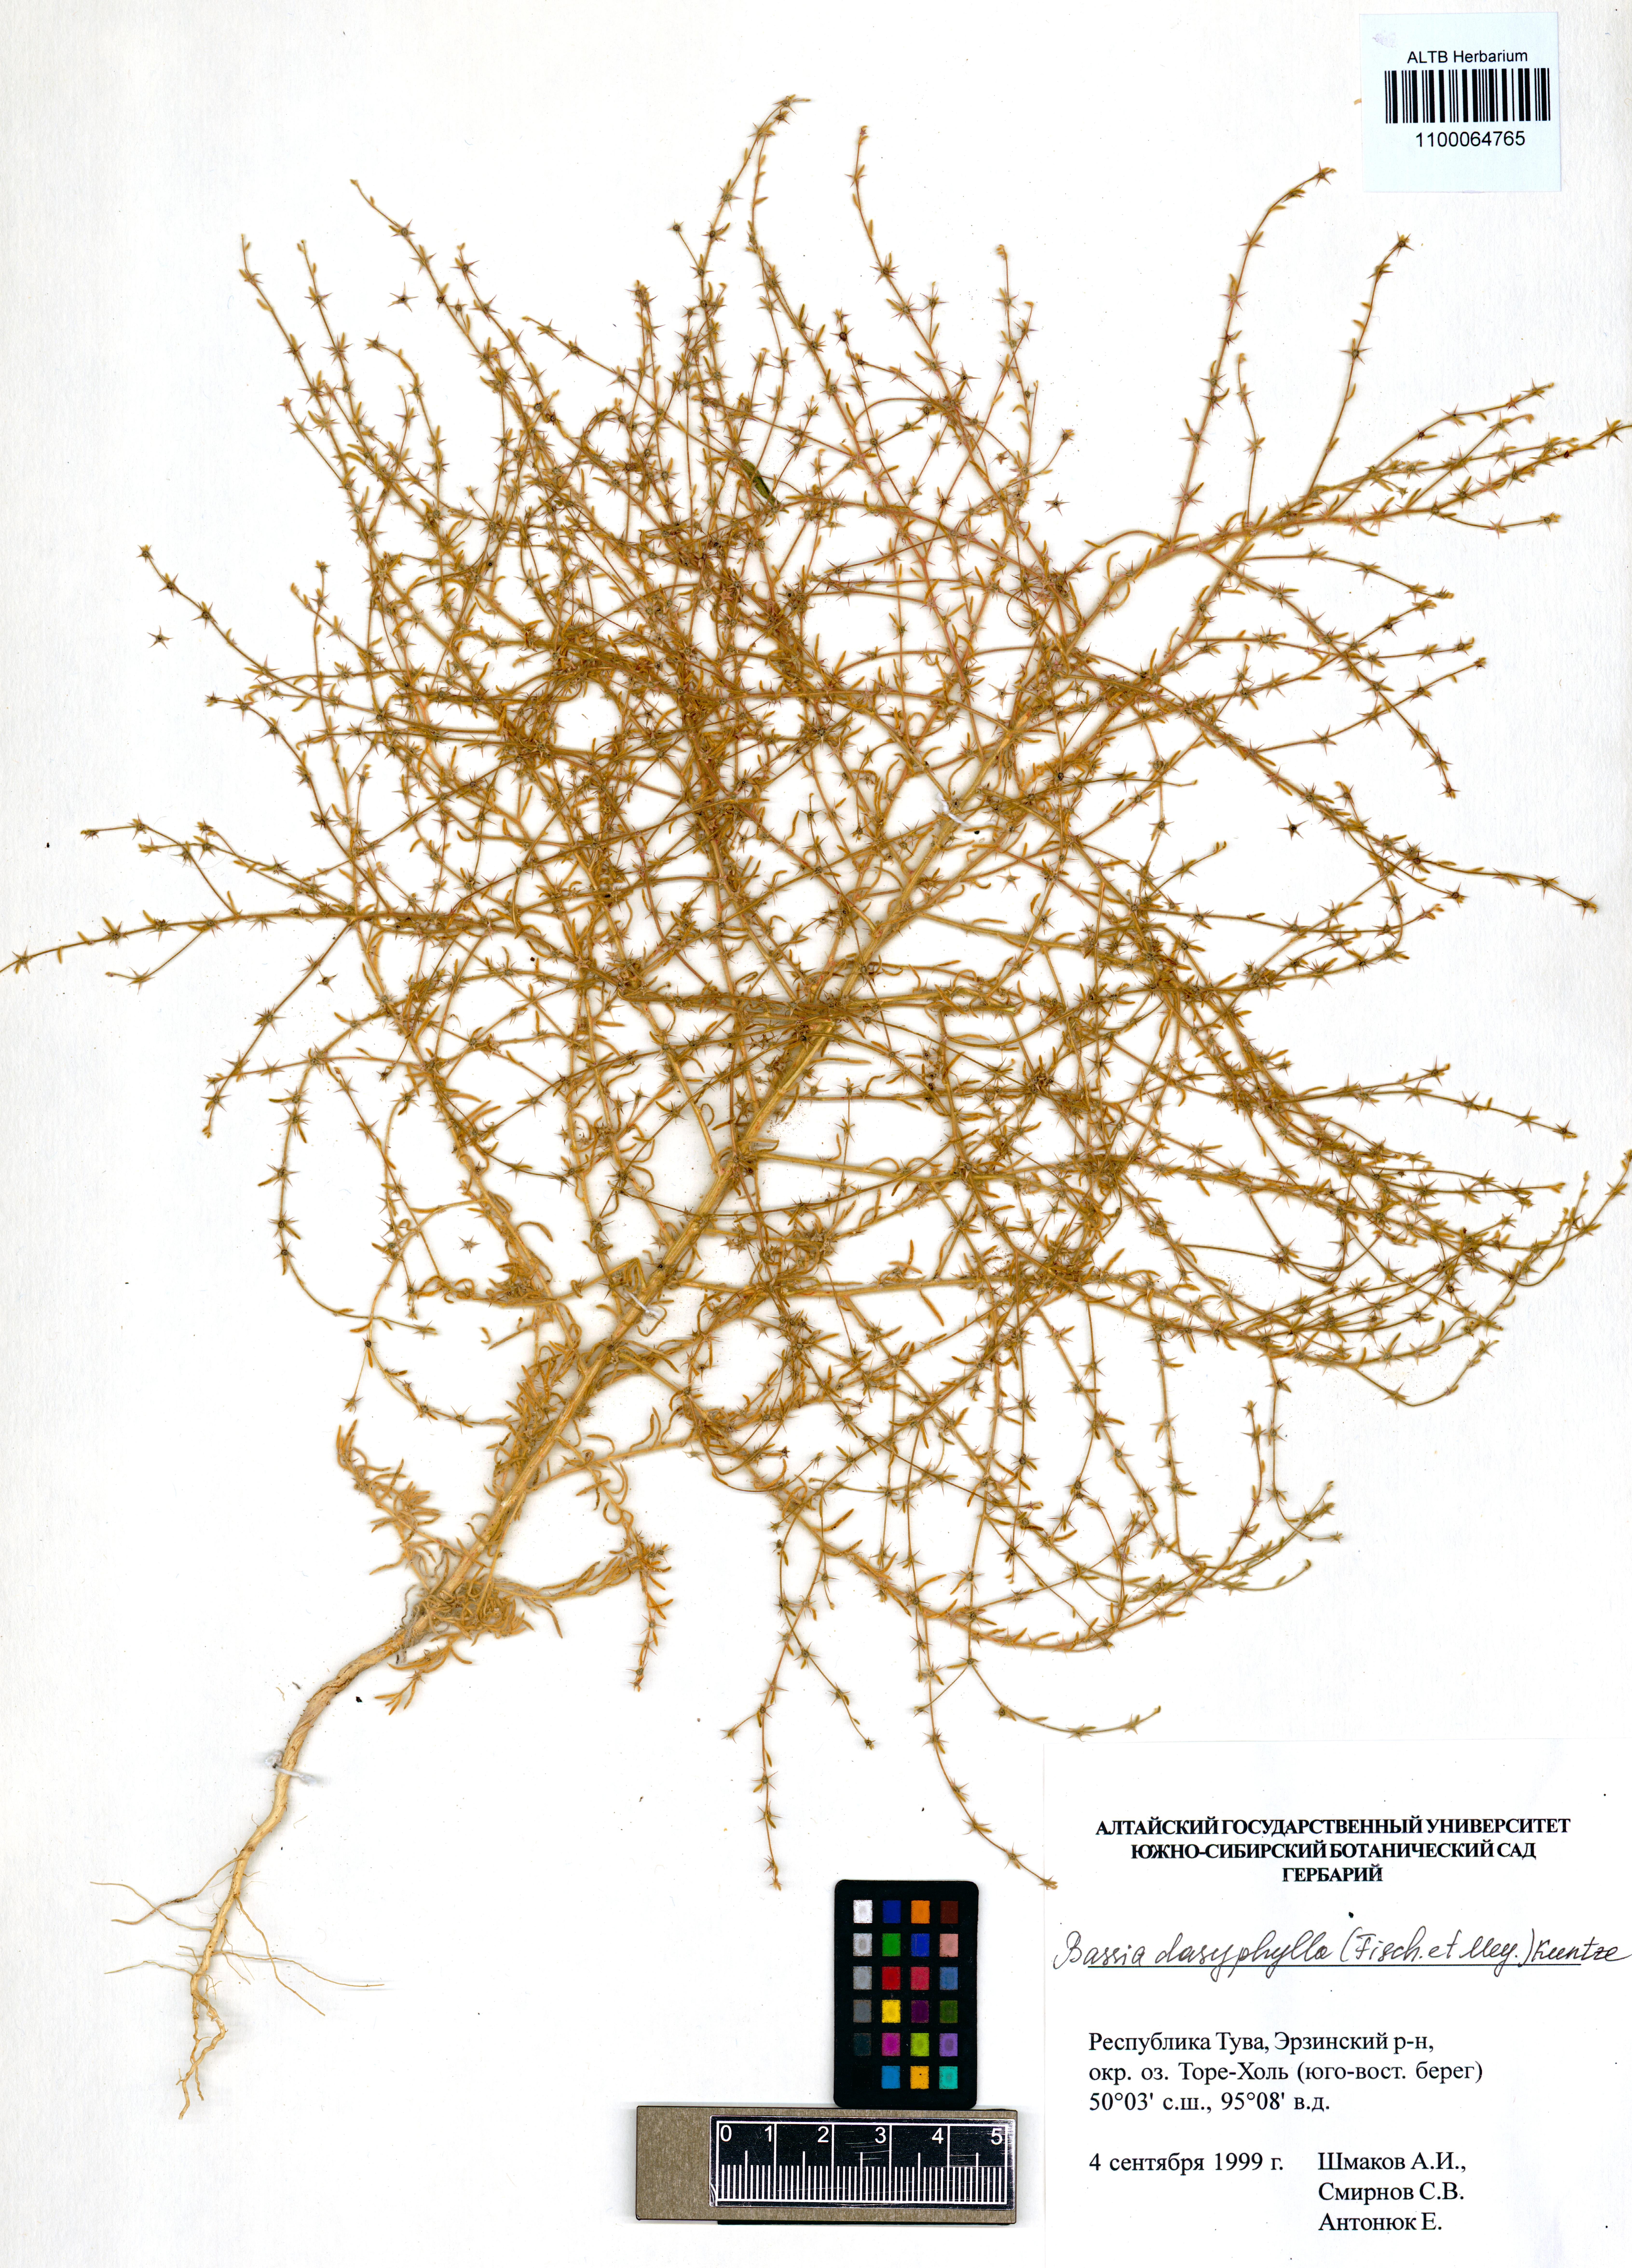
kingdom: Plantae
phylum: Tracheophyta
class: Magnoliopsida
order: Caryophyllales
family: Amaranthaceae
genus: Grubovia
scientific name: Grubovia dasyphylla
